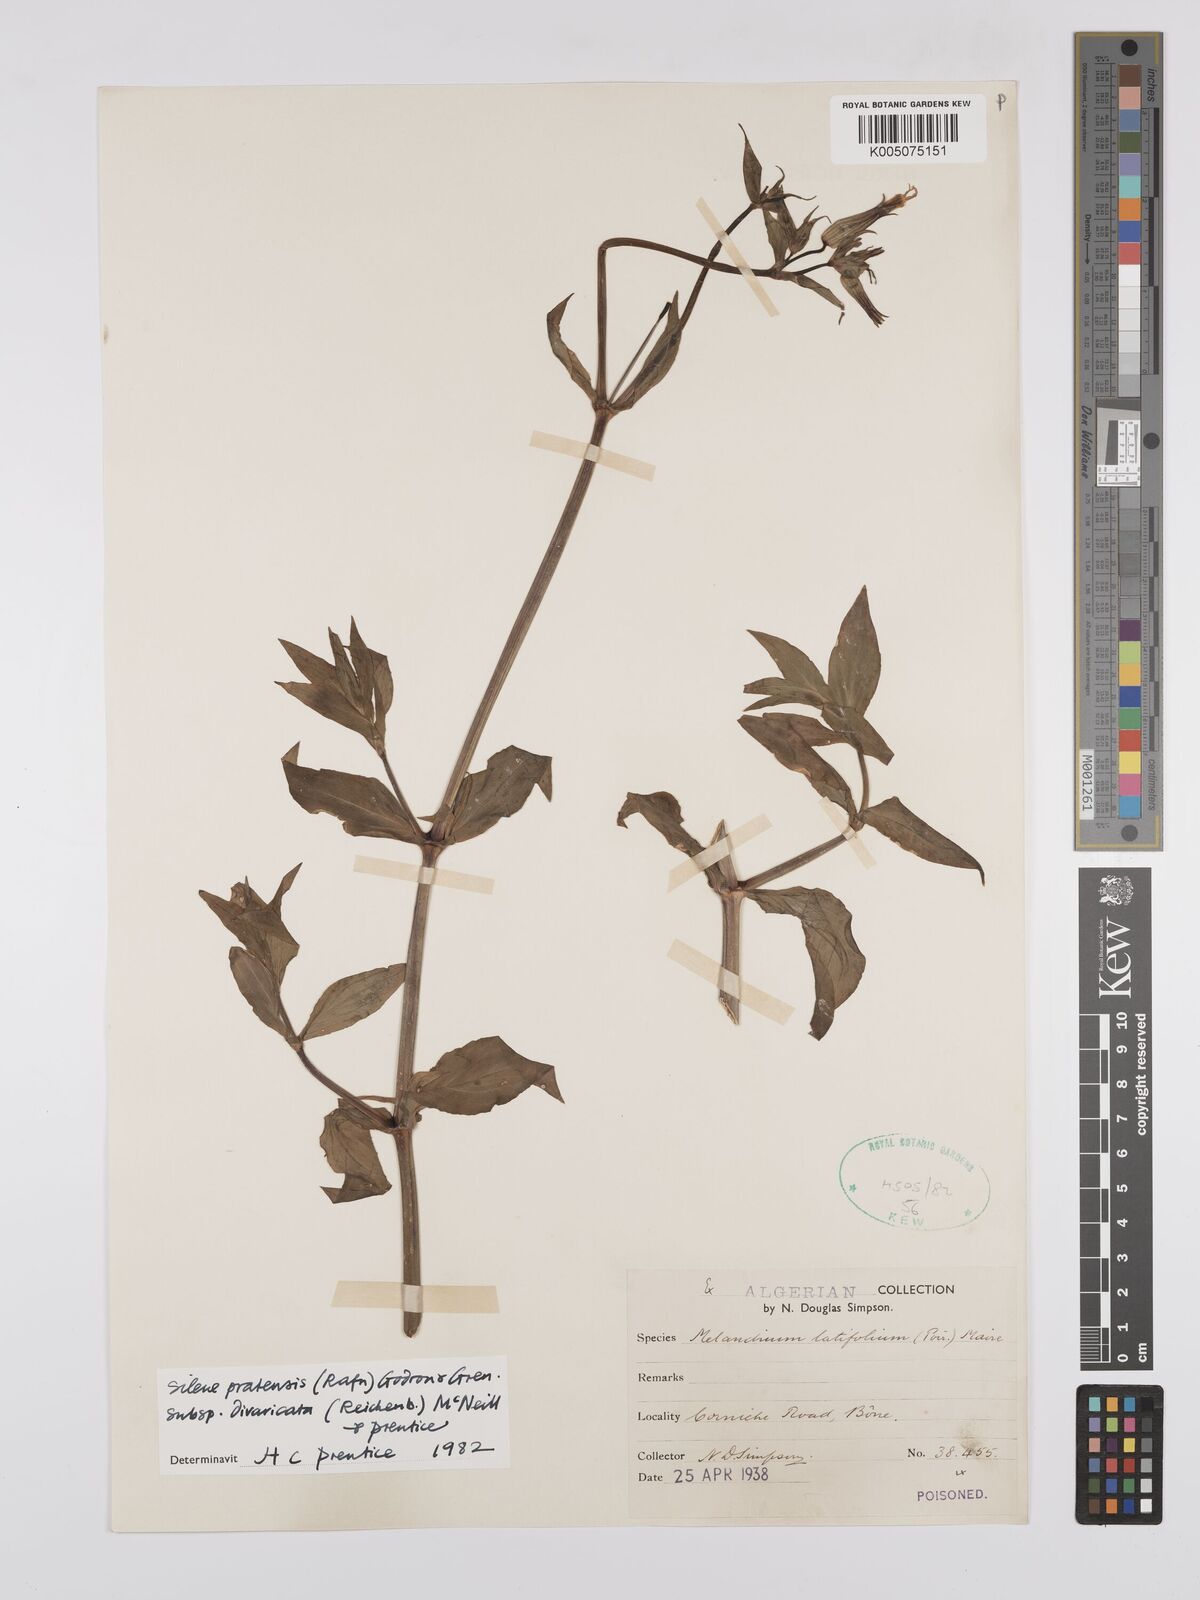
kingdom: Plantae
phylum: Tracheophyta
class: Magnoliopsida
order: Caryophyllales
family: Caryophyllaceae
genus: Silene
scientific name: Silene latifolia
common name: White campion
